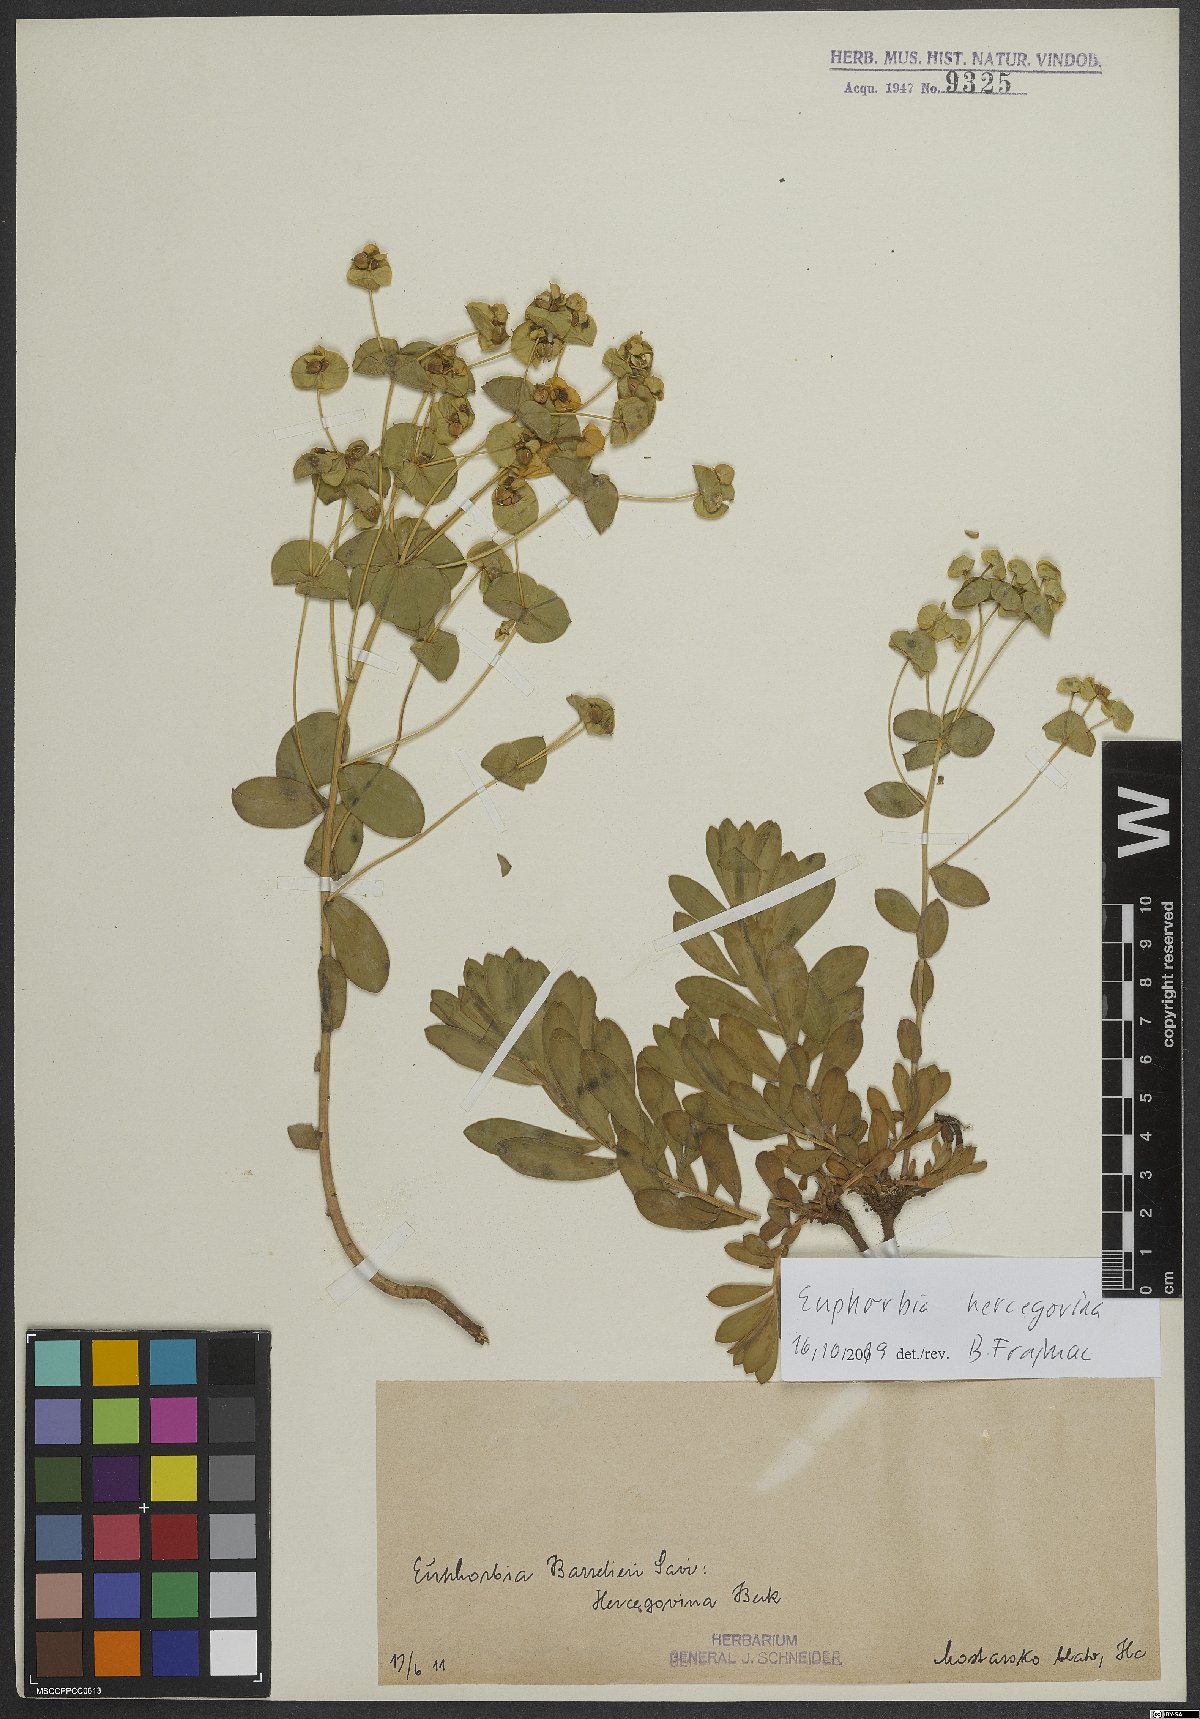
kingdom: Plantae
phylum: Tracheophyta
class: Magnoliopsida
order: Malpighiales
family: Euphorbiaceae
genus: Euphorbia
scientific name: Euphorbia barrelieri
